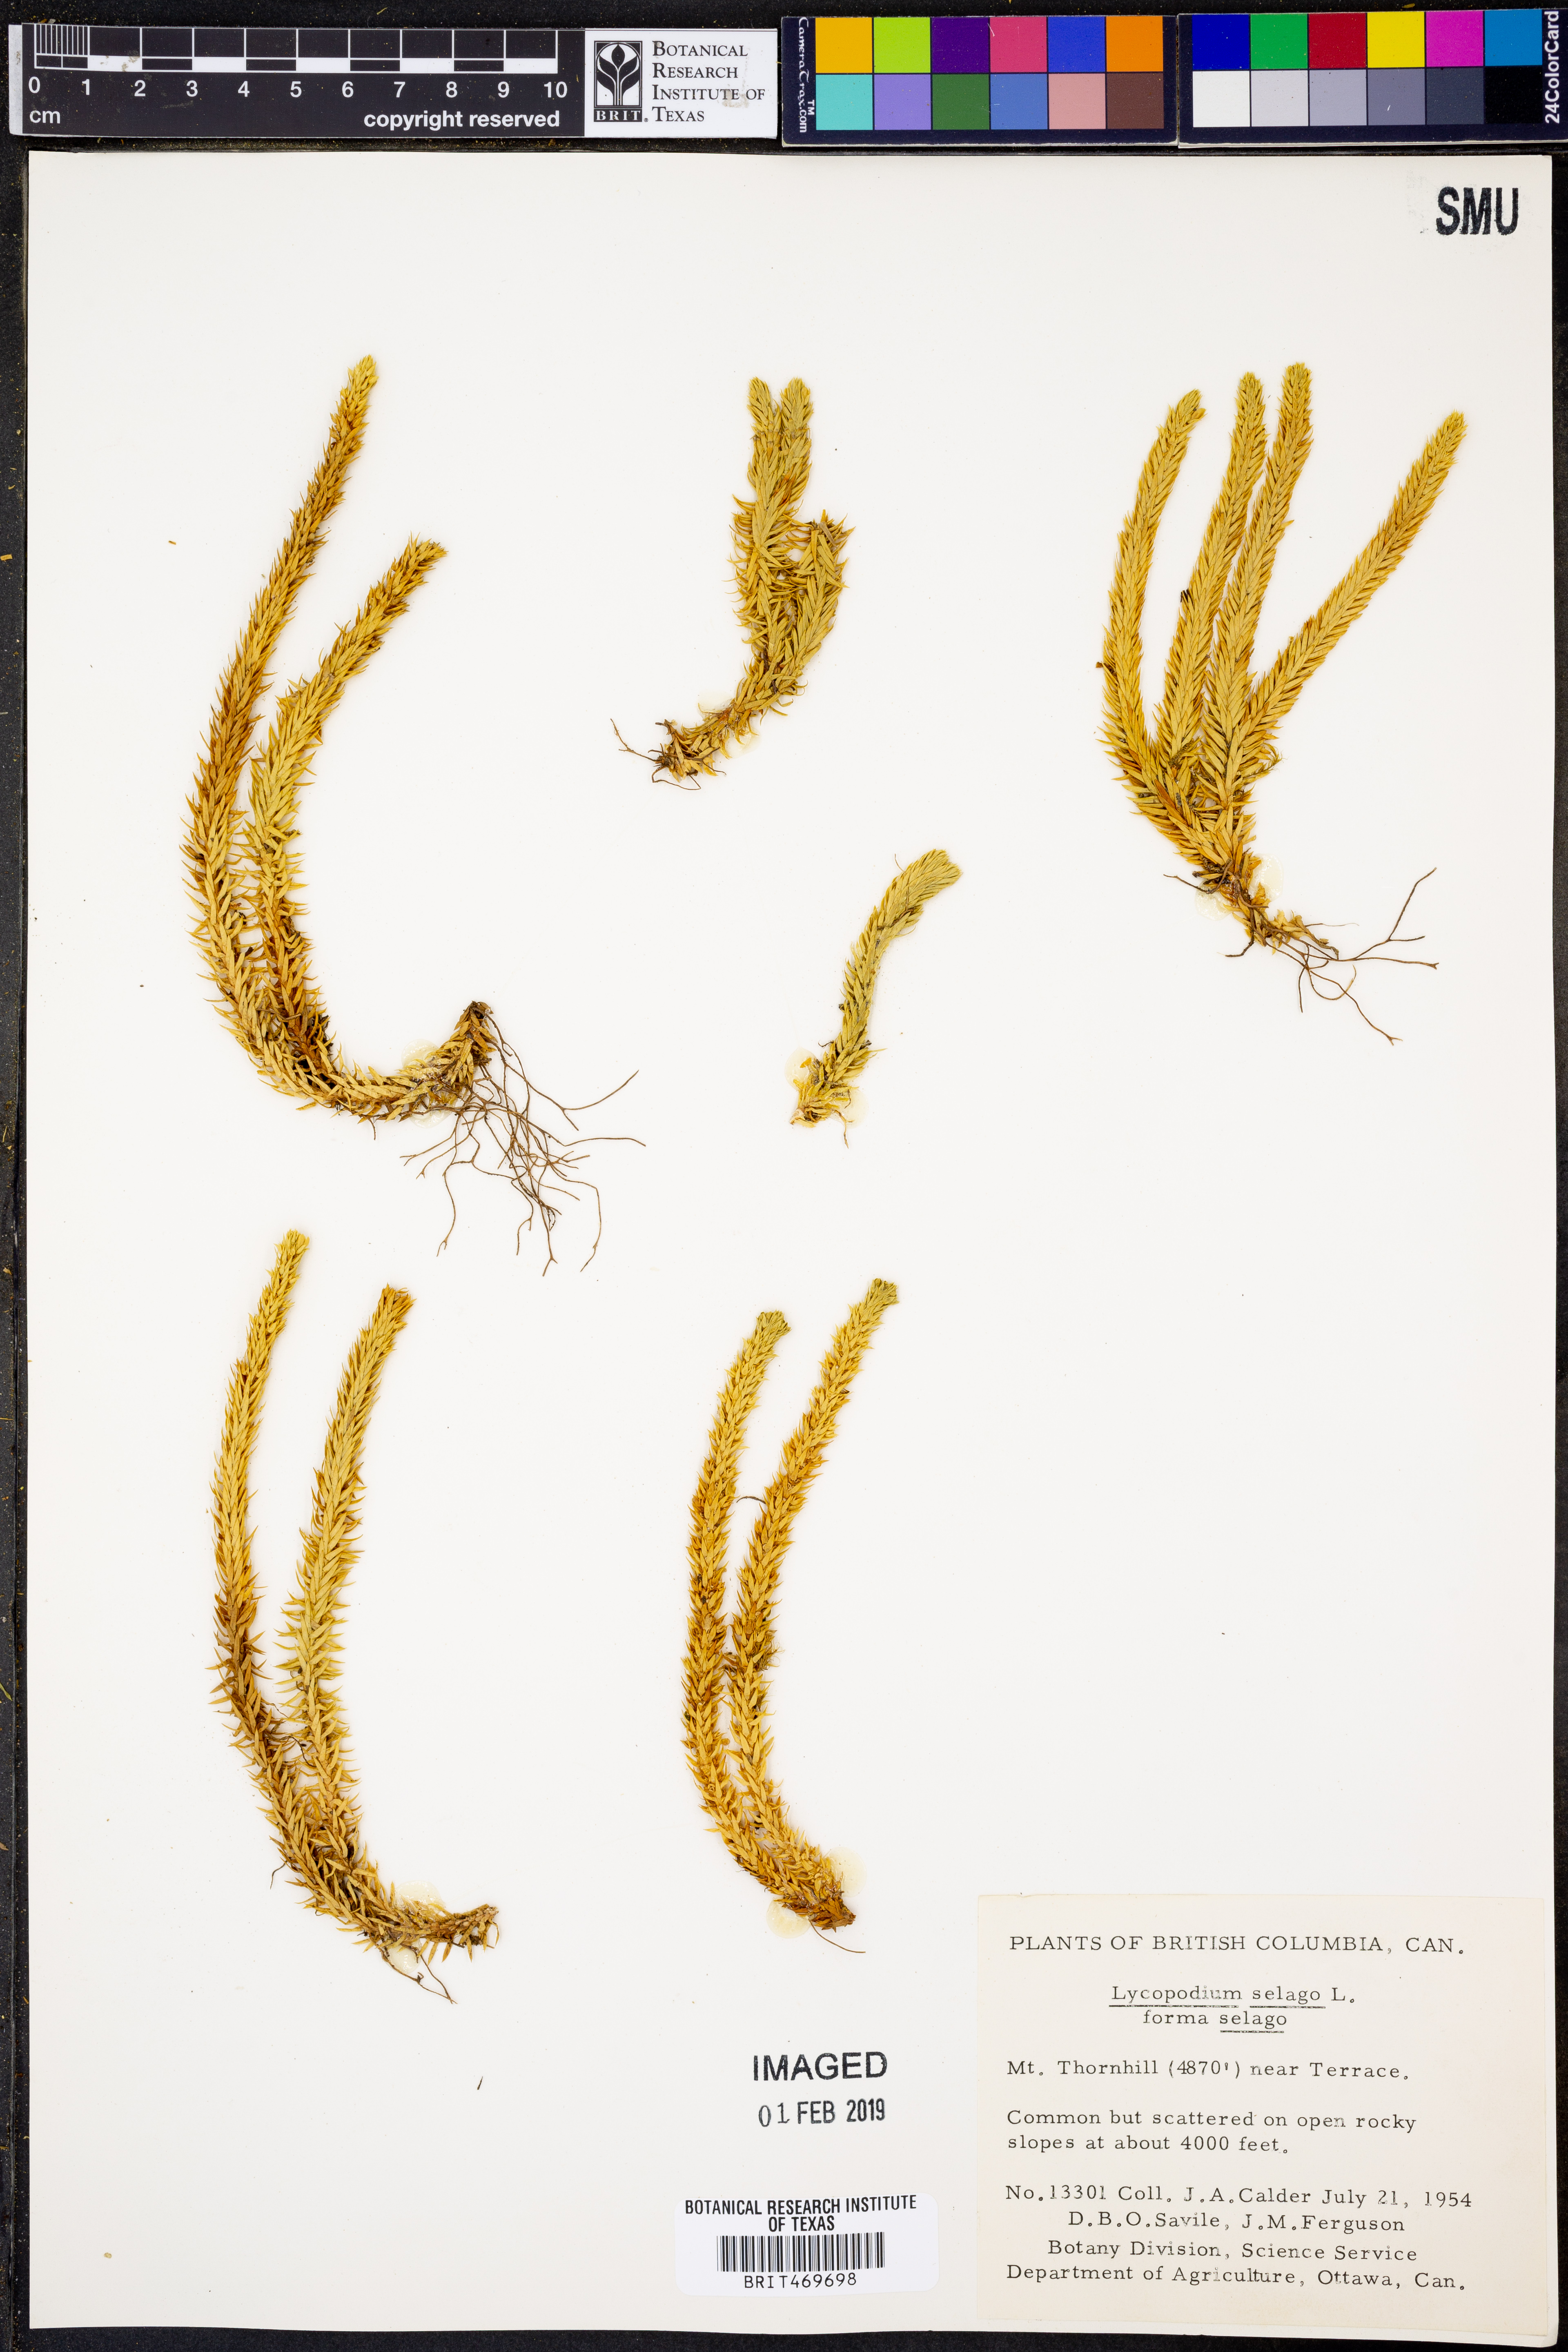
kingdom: Plantae
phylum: Tracheophyta
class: Lycopodiopsida
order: Lycopodiales
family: Lycopodiaceae
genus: Huperzia
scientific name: Huperzia selago
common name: Northern firmoss
